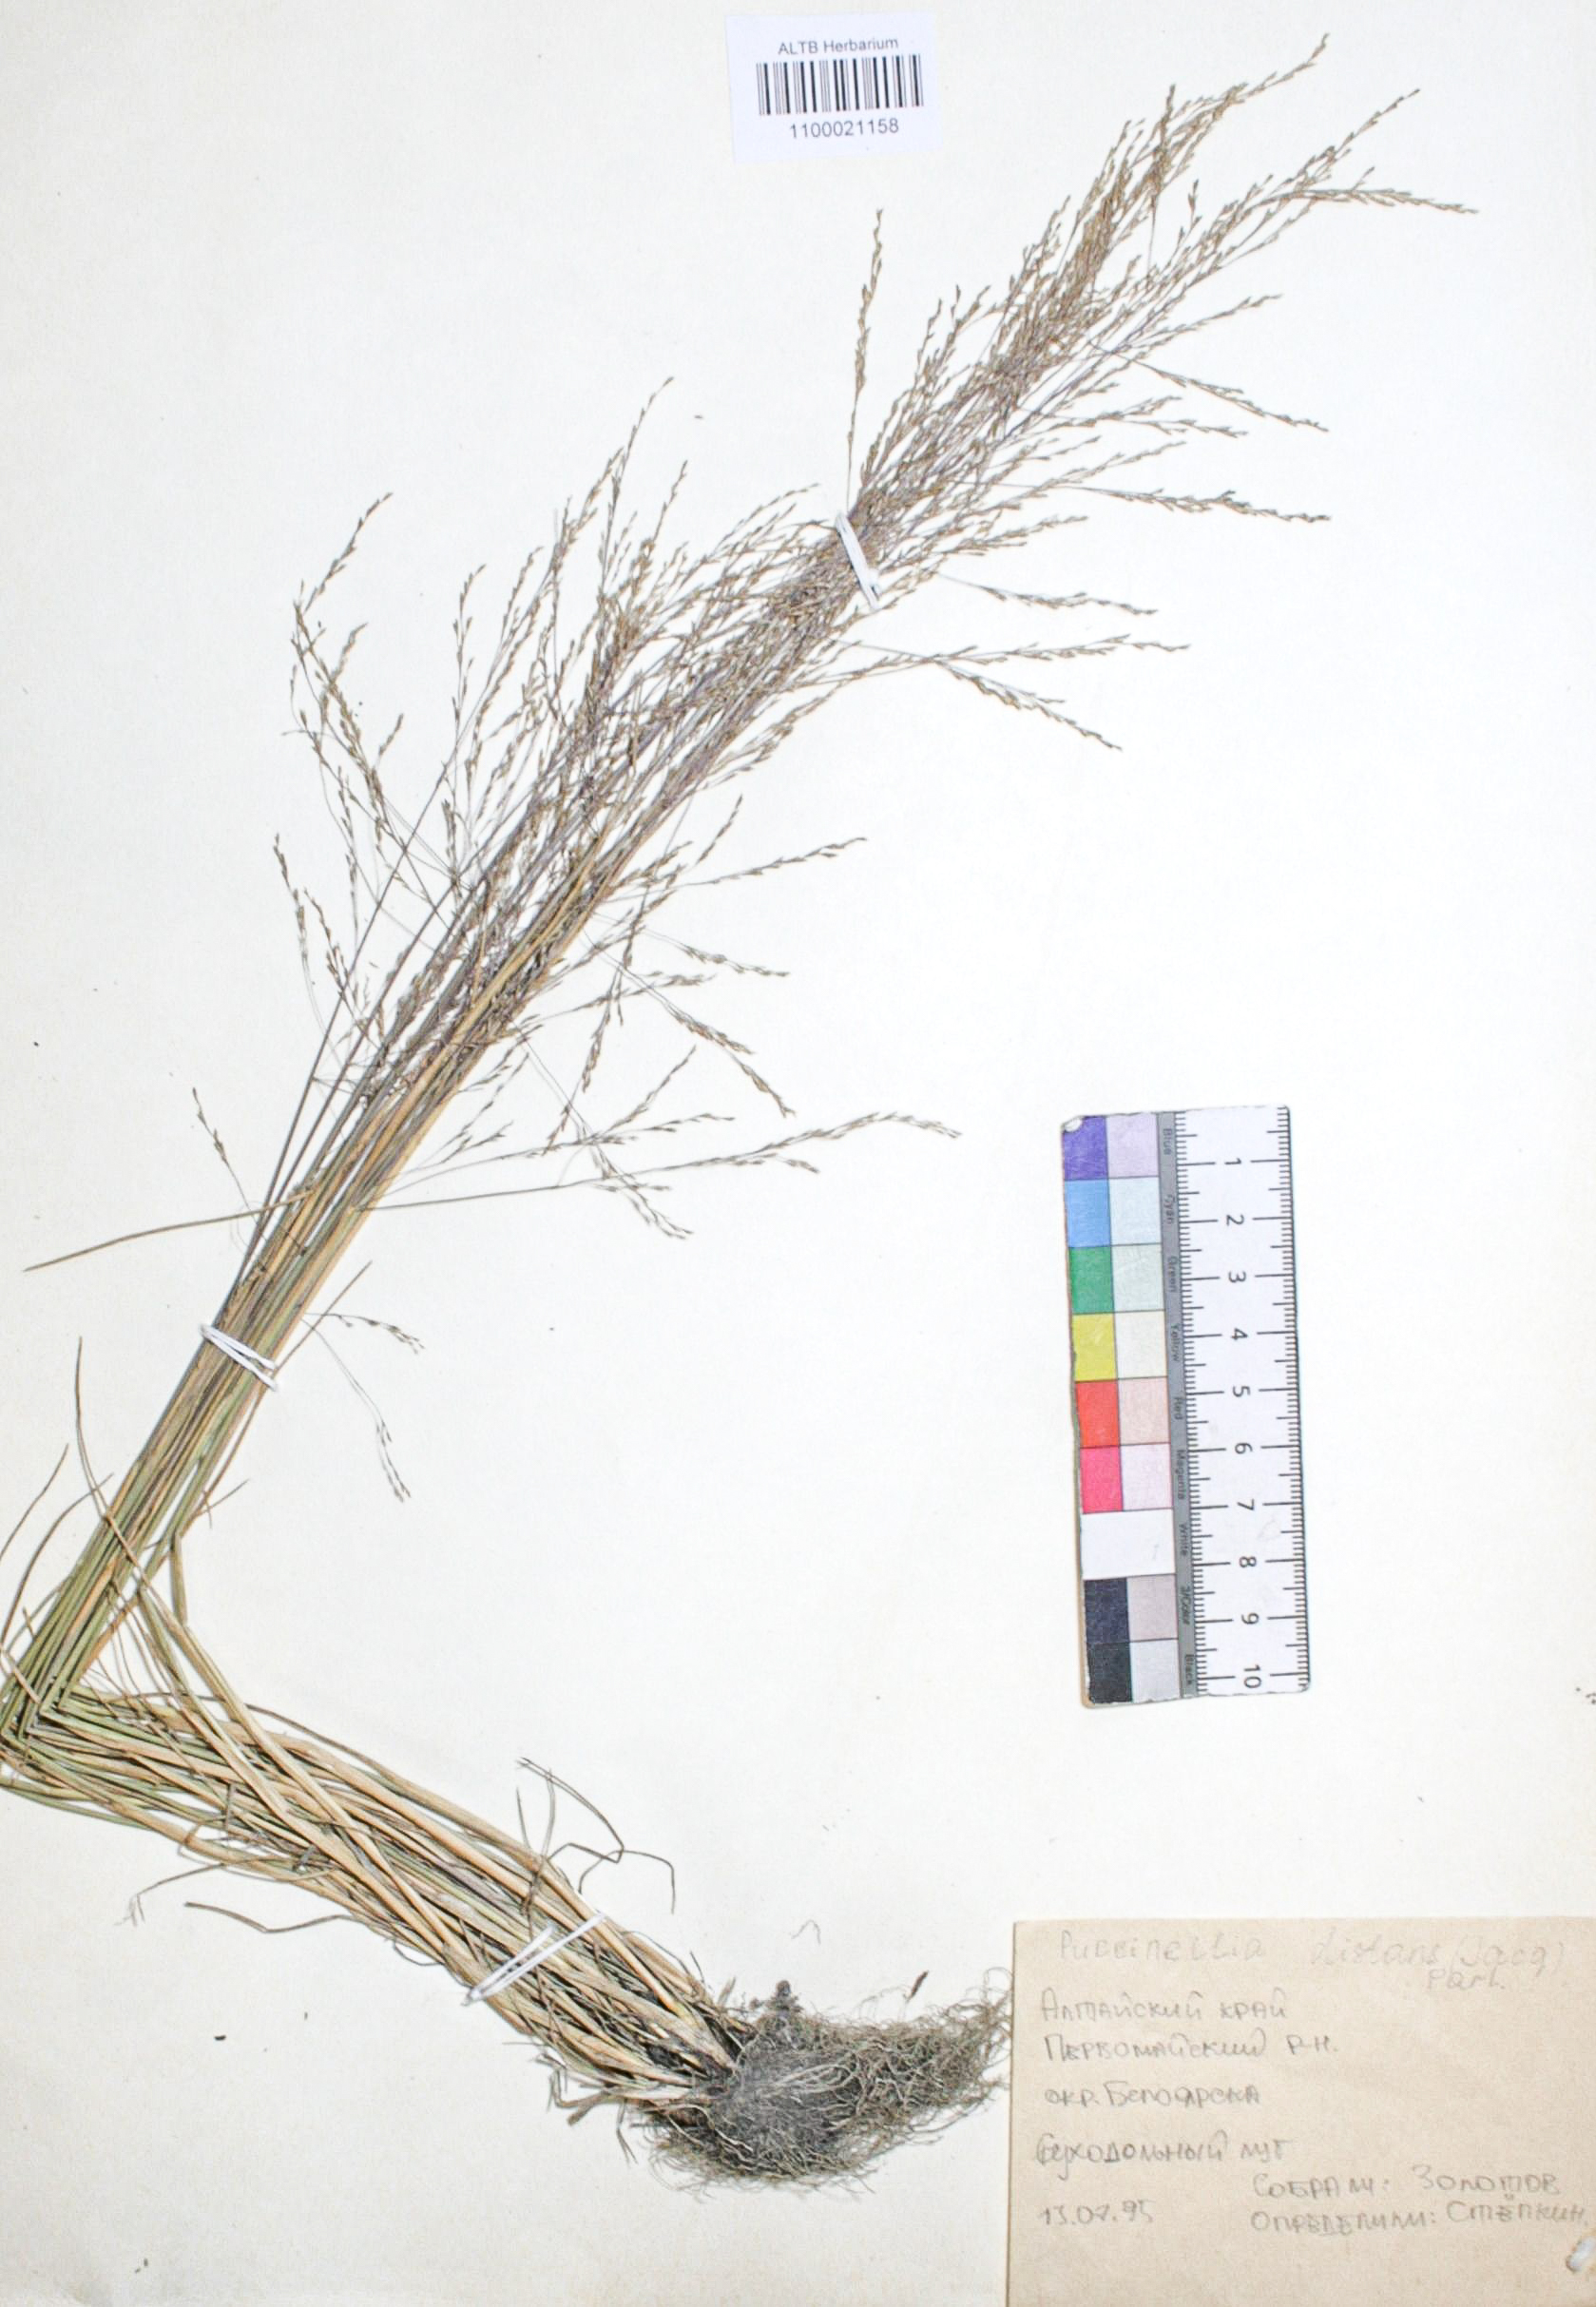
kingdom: Plantae
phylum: Tracheophyta
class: Liliopsida
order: Poales
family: Poaceae
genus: Puccinellia
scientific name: Puccinellia distans
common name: Weeping alkaligrass
